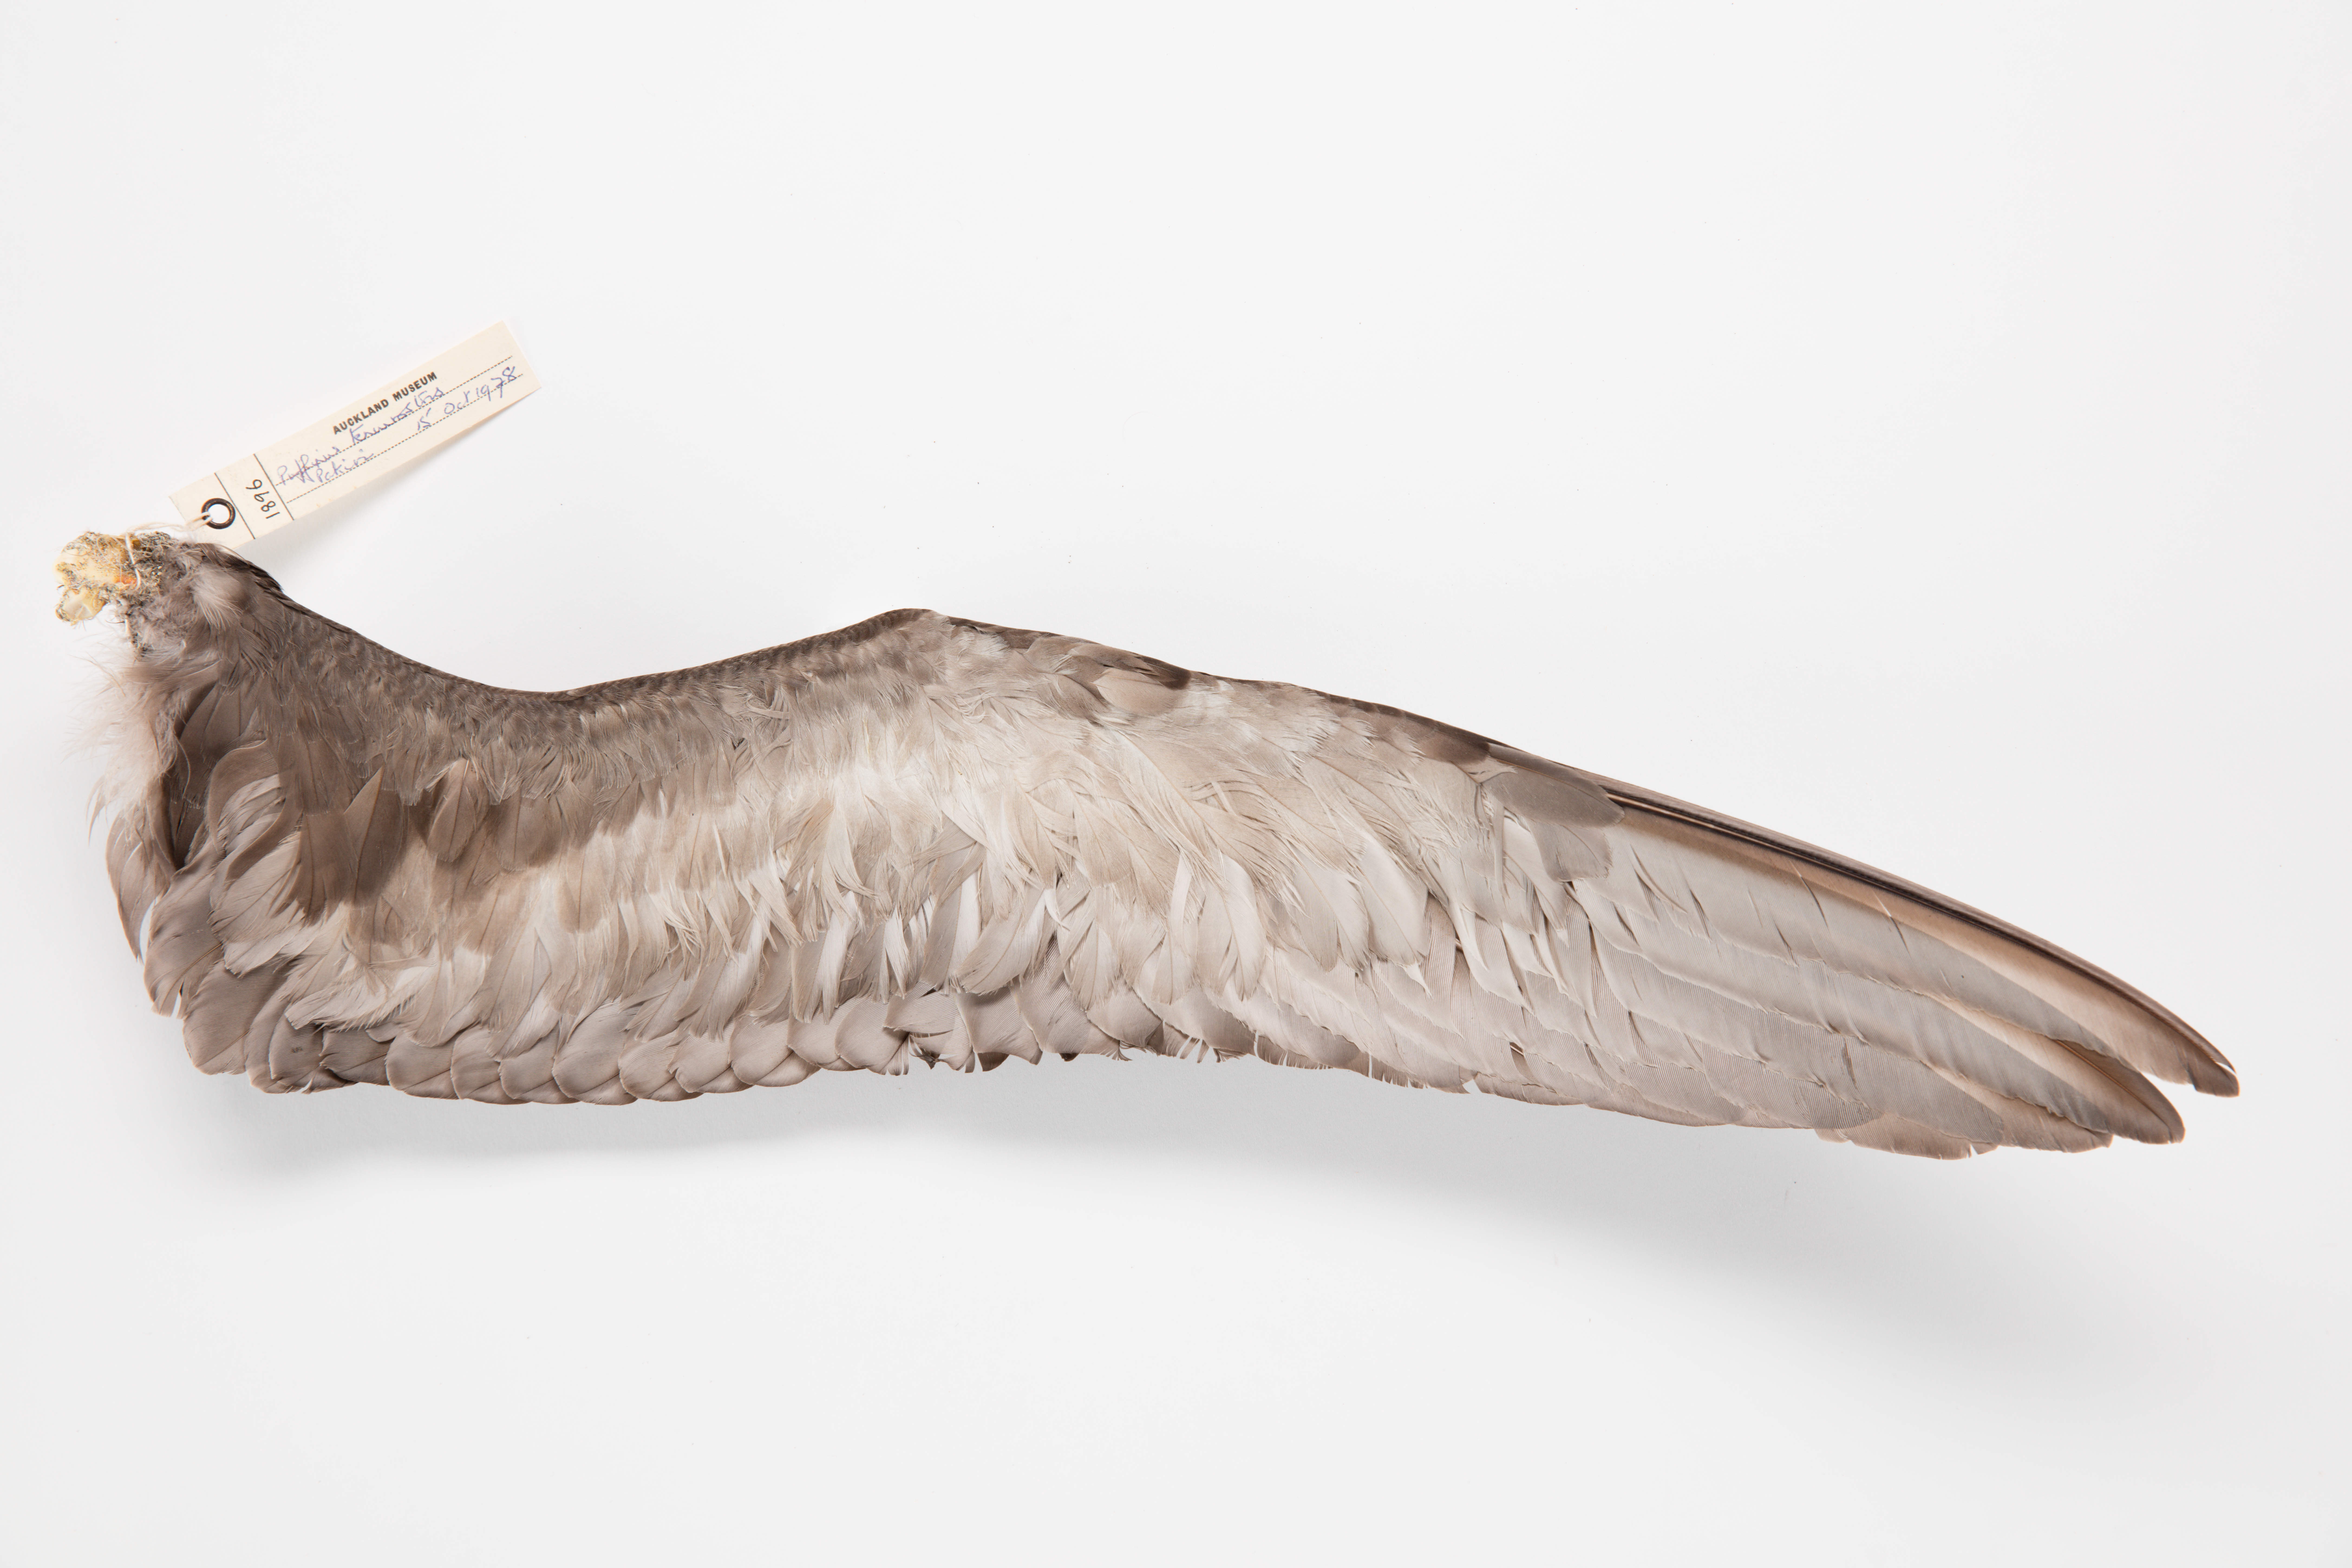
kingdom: Animalia
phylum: Chordata
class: Aves
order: Procellariiformes
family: Procellariidae
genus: Puffinus
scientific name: Puffinus tenuirostris
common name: Short-tailed shearwater
